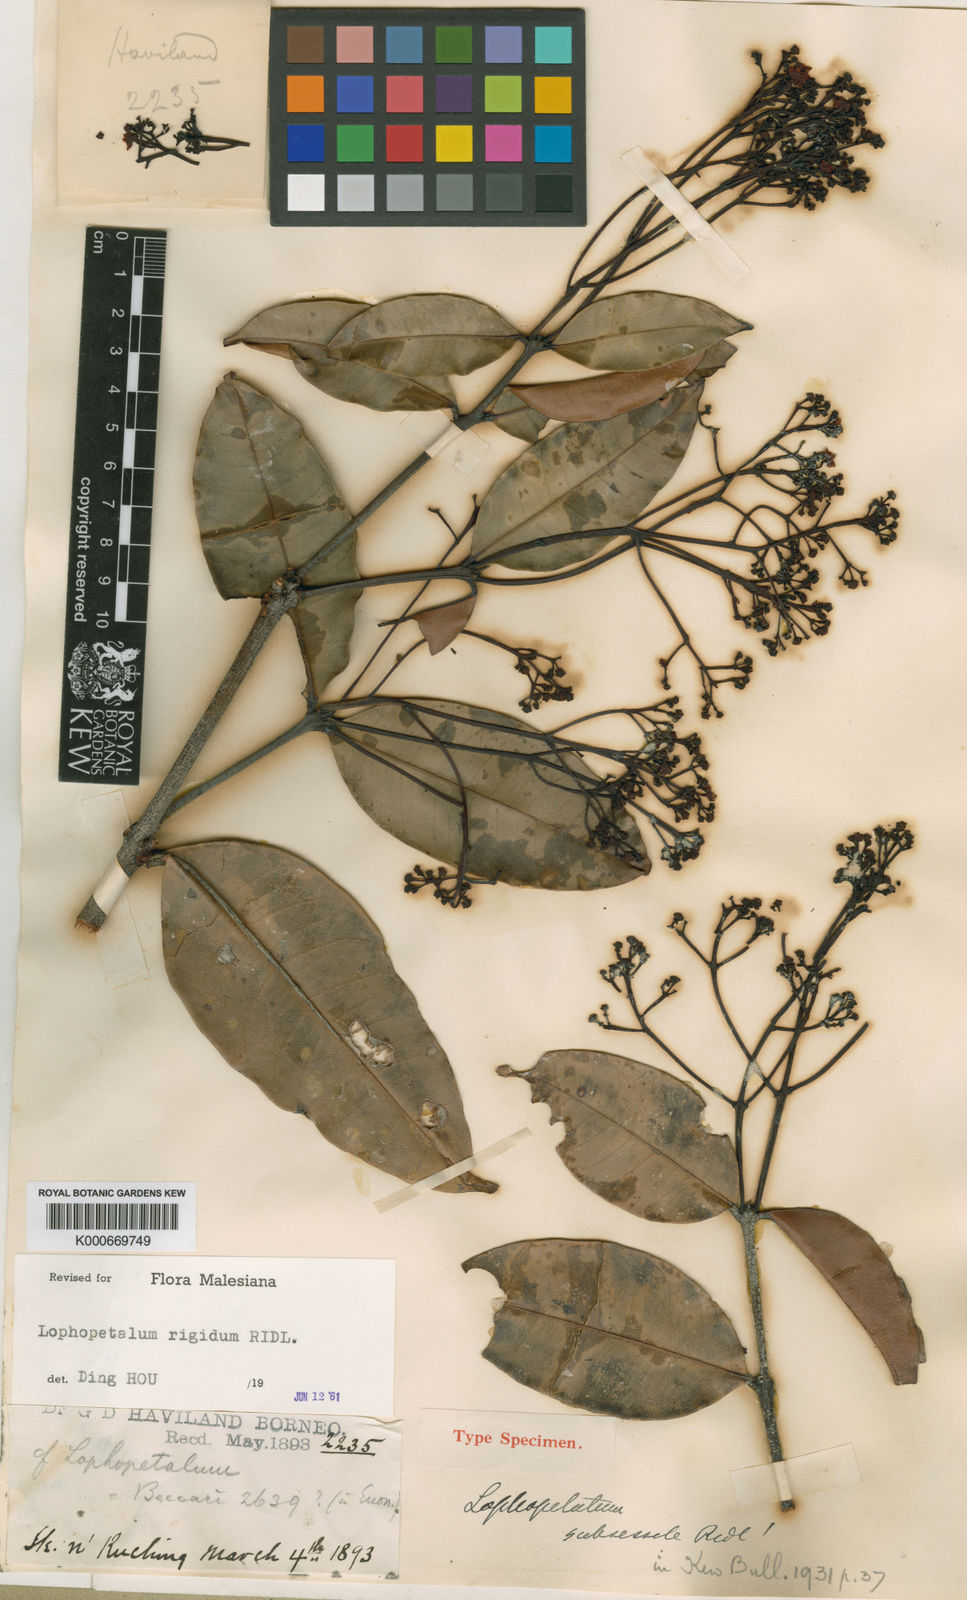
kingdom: Plantae
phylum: Tracheophyta
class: Magnoliopsida
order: Celastrales
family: Celastraceae
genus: Lophopetalum
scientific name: Lophopetalum rigidum
